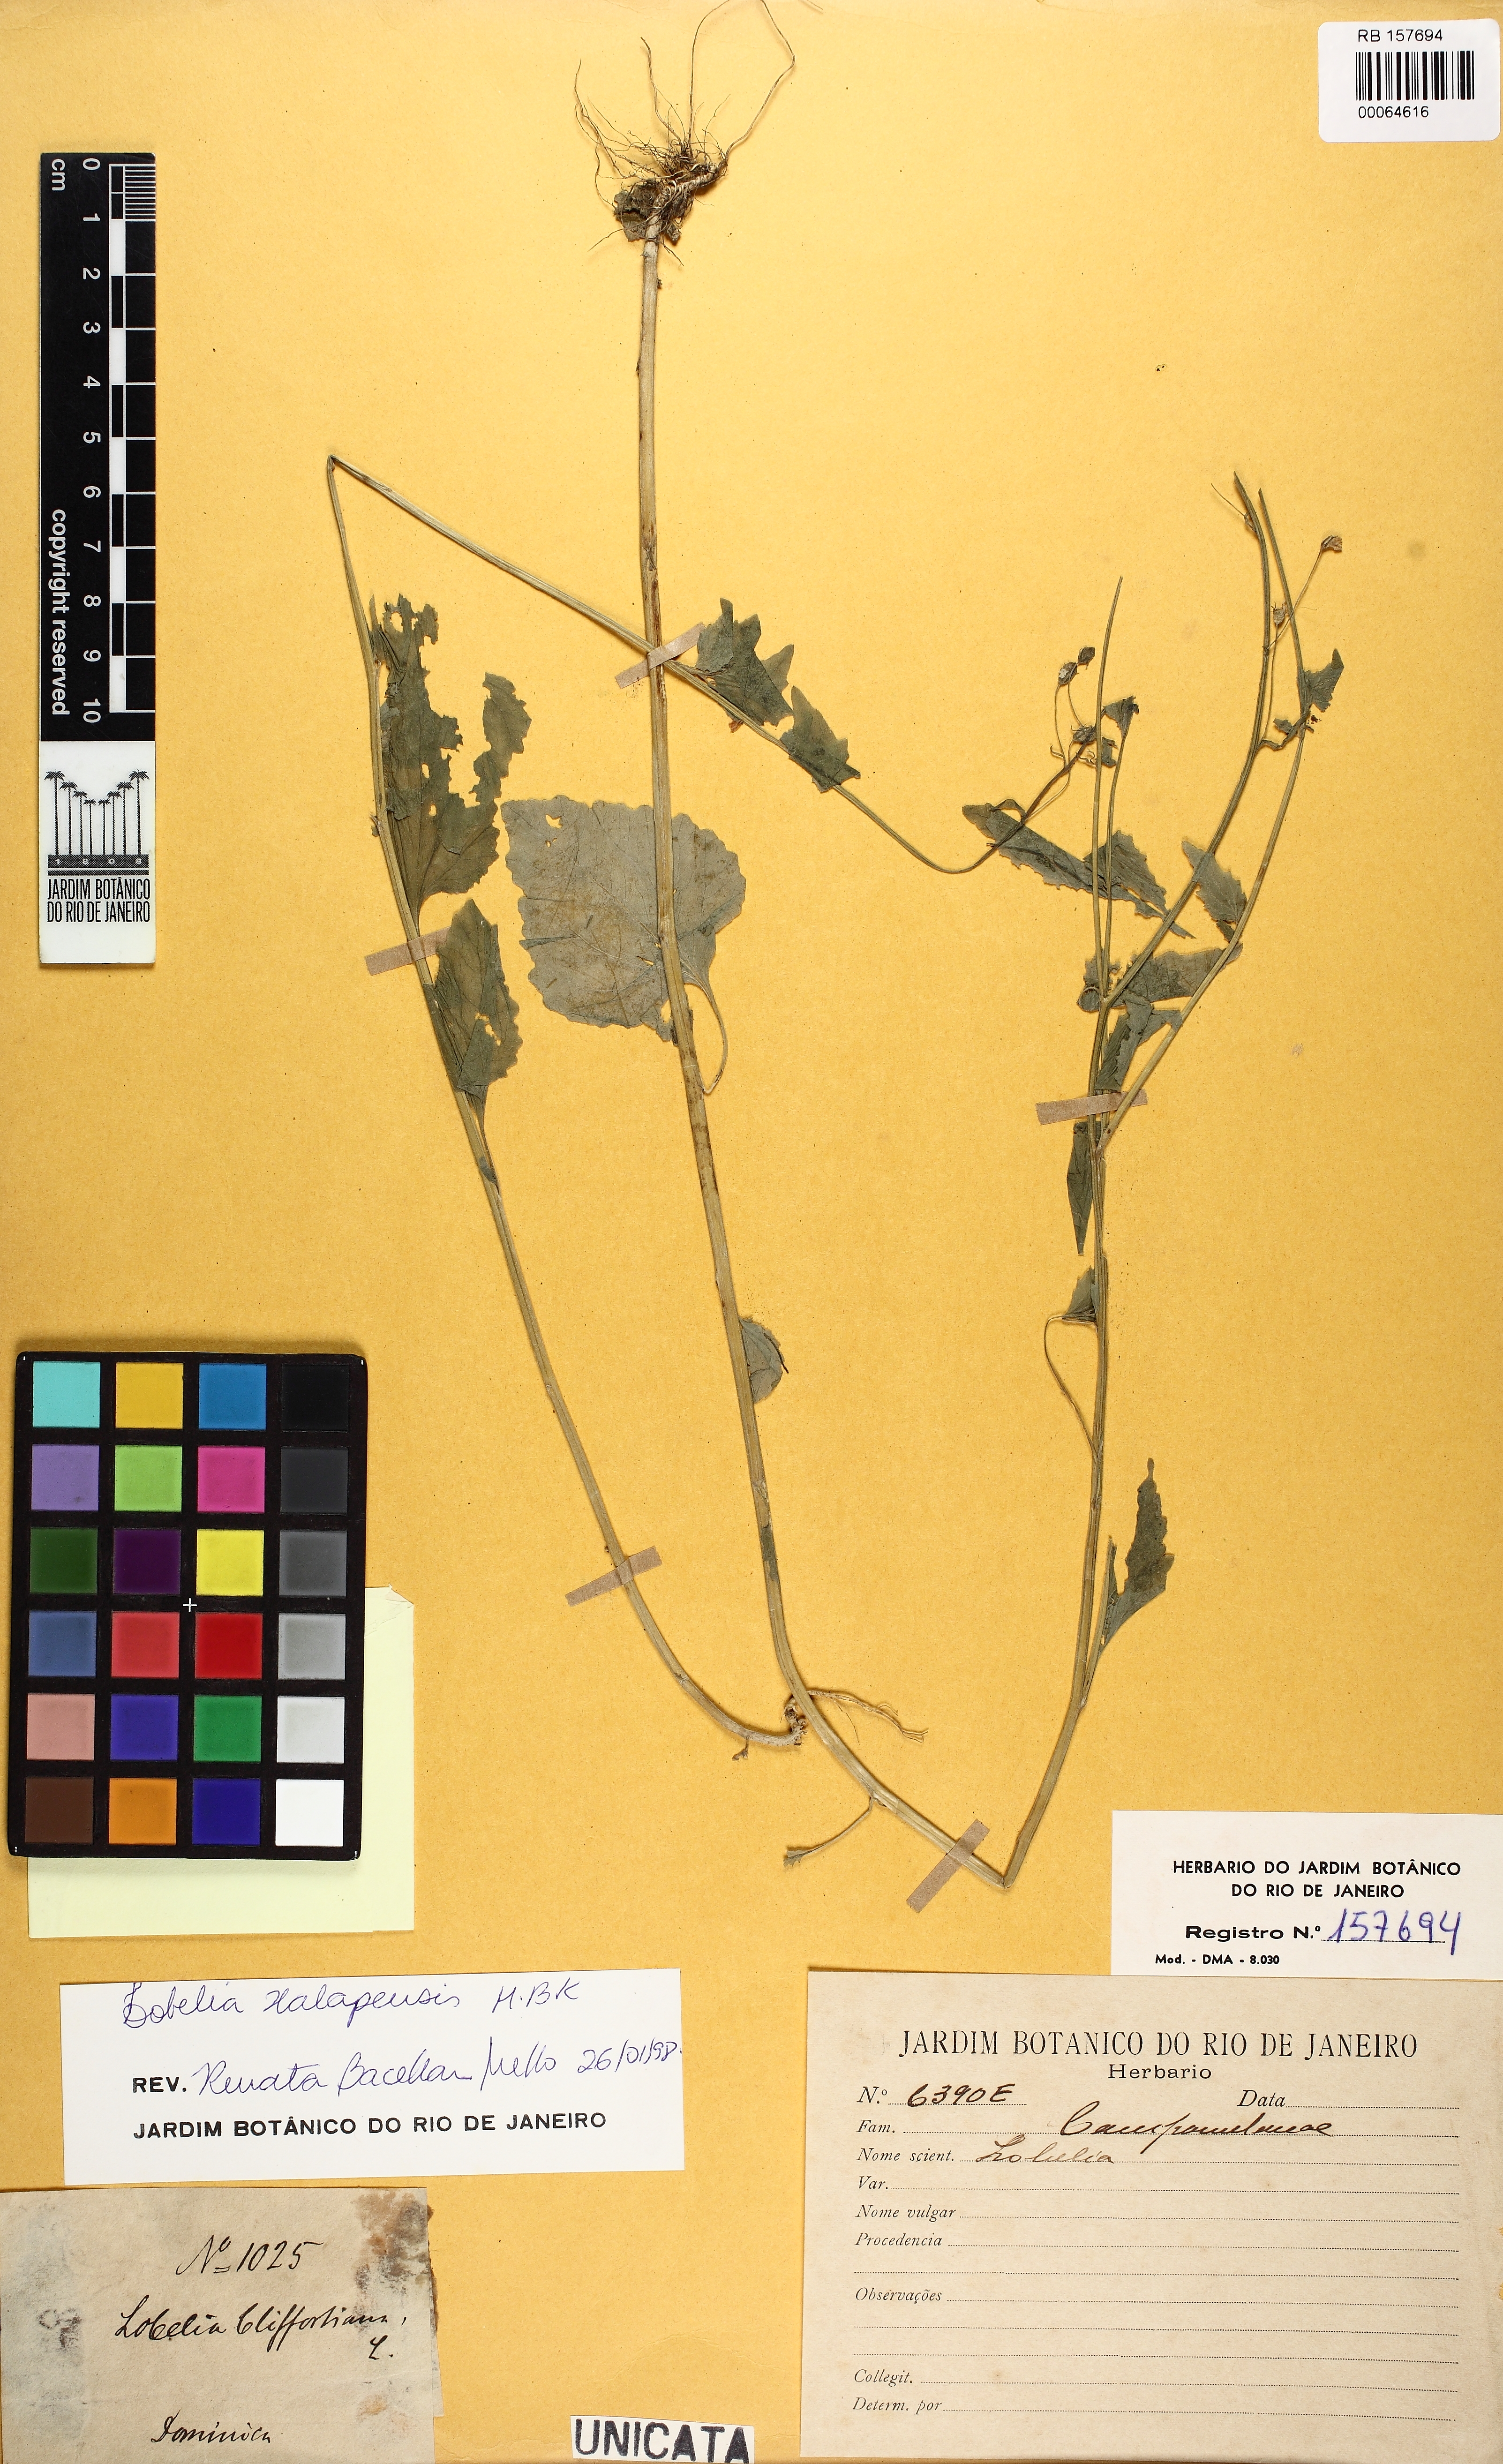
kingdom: Plantae
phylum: Tracheophyta
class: Magnoliopsida
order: Asterales
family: Campanulaceae
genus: Lobelia
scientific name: Lobelia xalapensis
